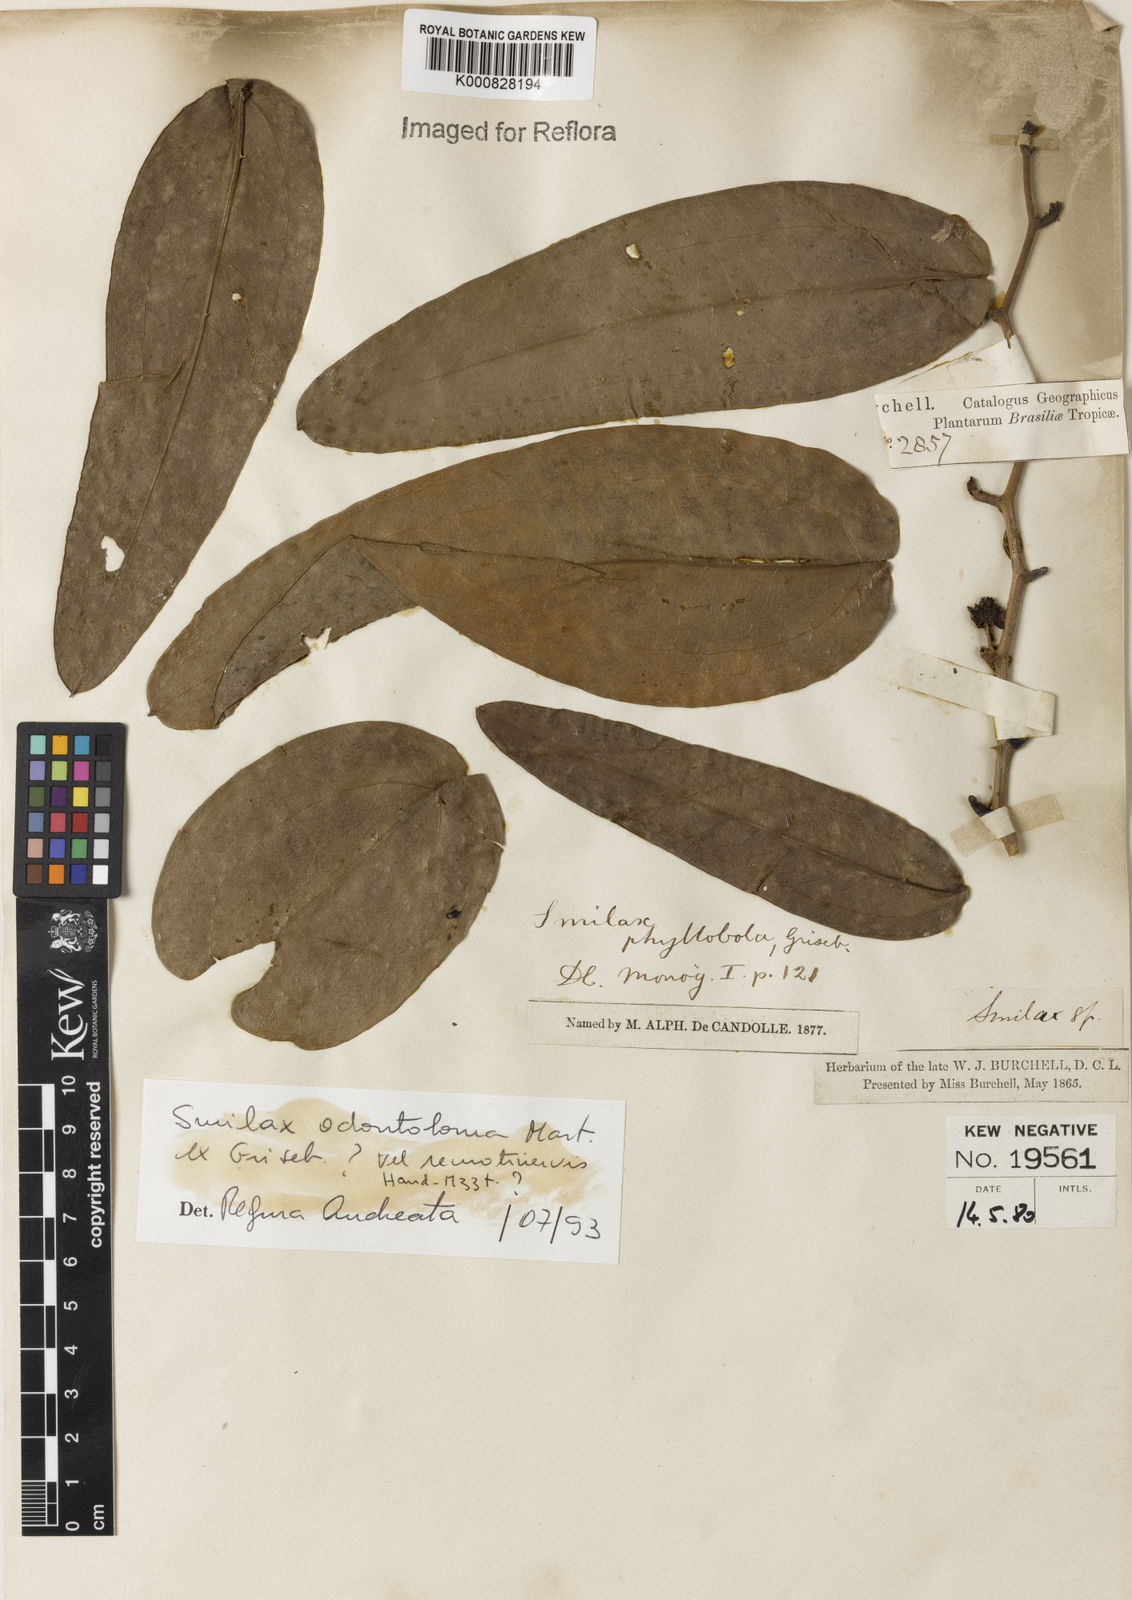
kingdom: Plantae
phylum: Tracheophyta
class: Liliopsida
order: Liliales
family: Smilacaceae
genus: Smilax
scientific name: Smilax
